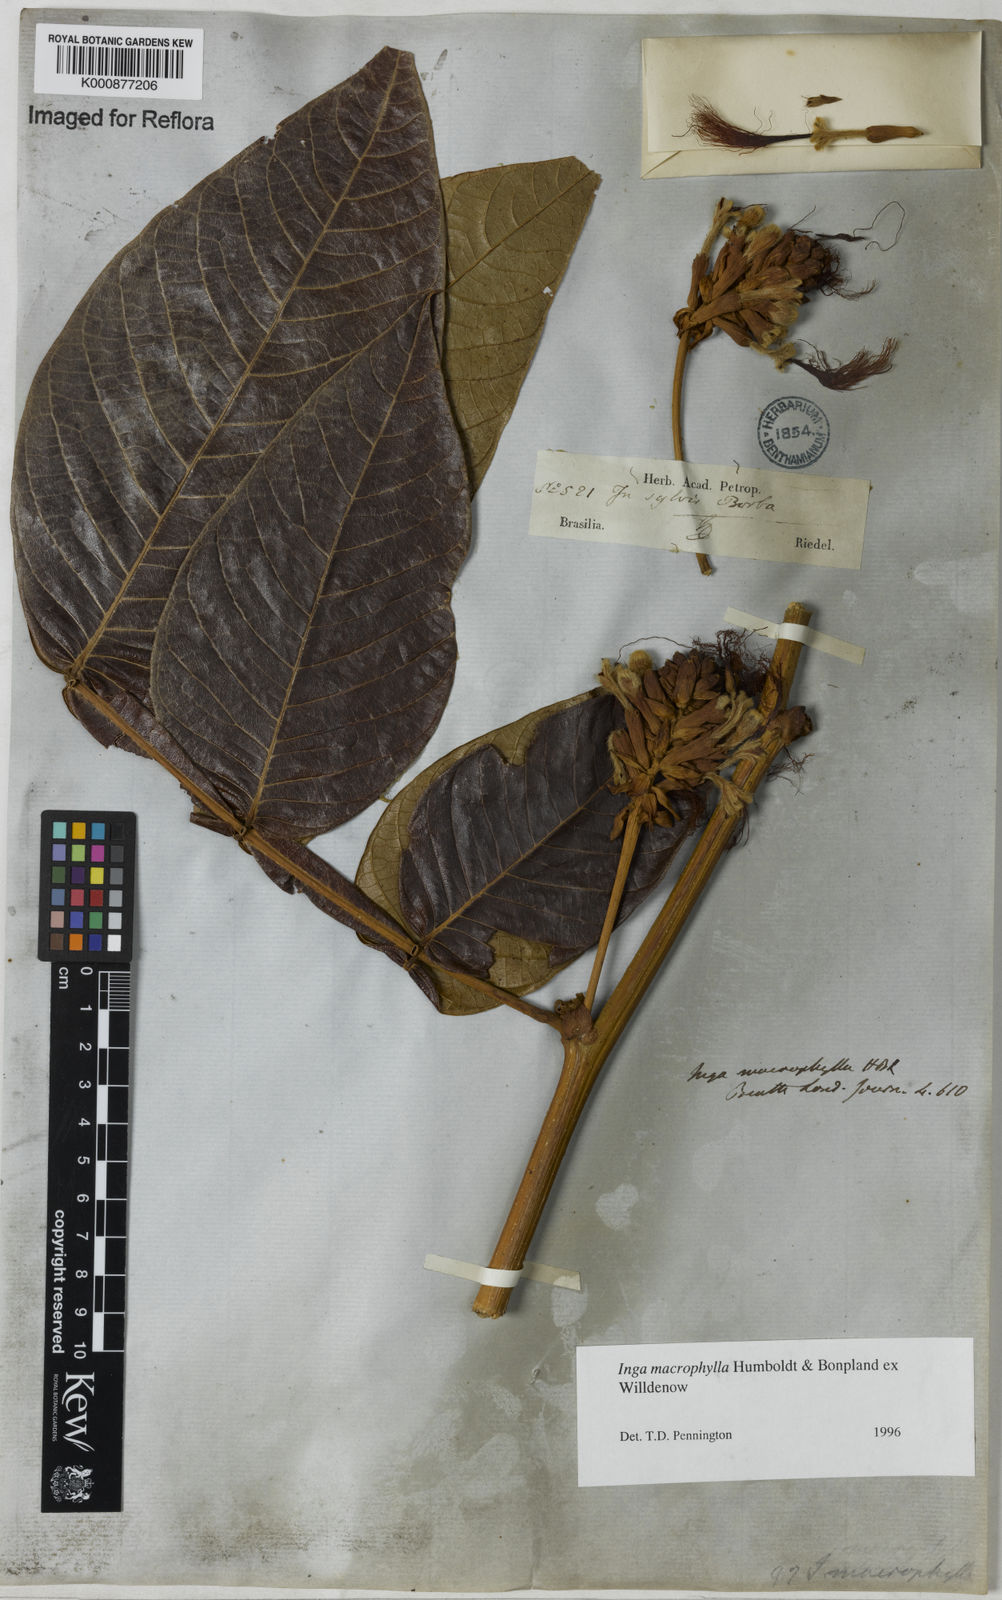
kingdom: Plantae
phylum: Tracheophyta
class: Magnoliopsida
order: Fabales
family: Fabaceae
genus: Inga
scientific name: Inga macrophylla
